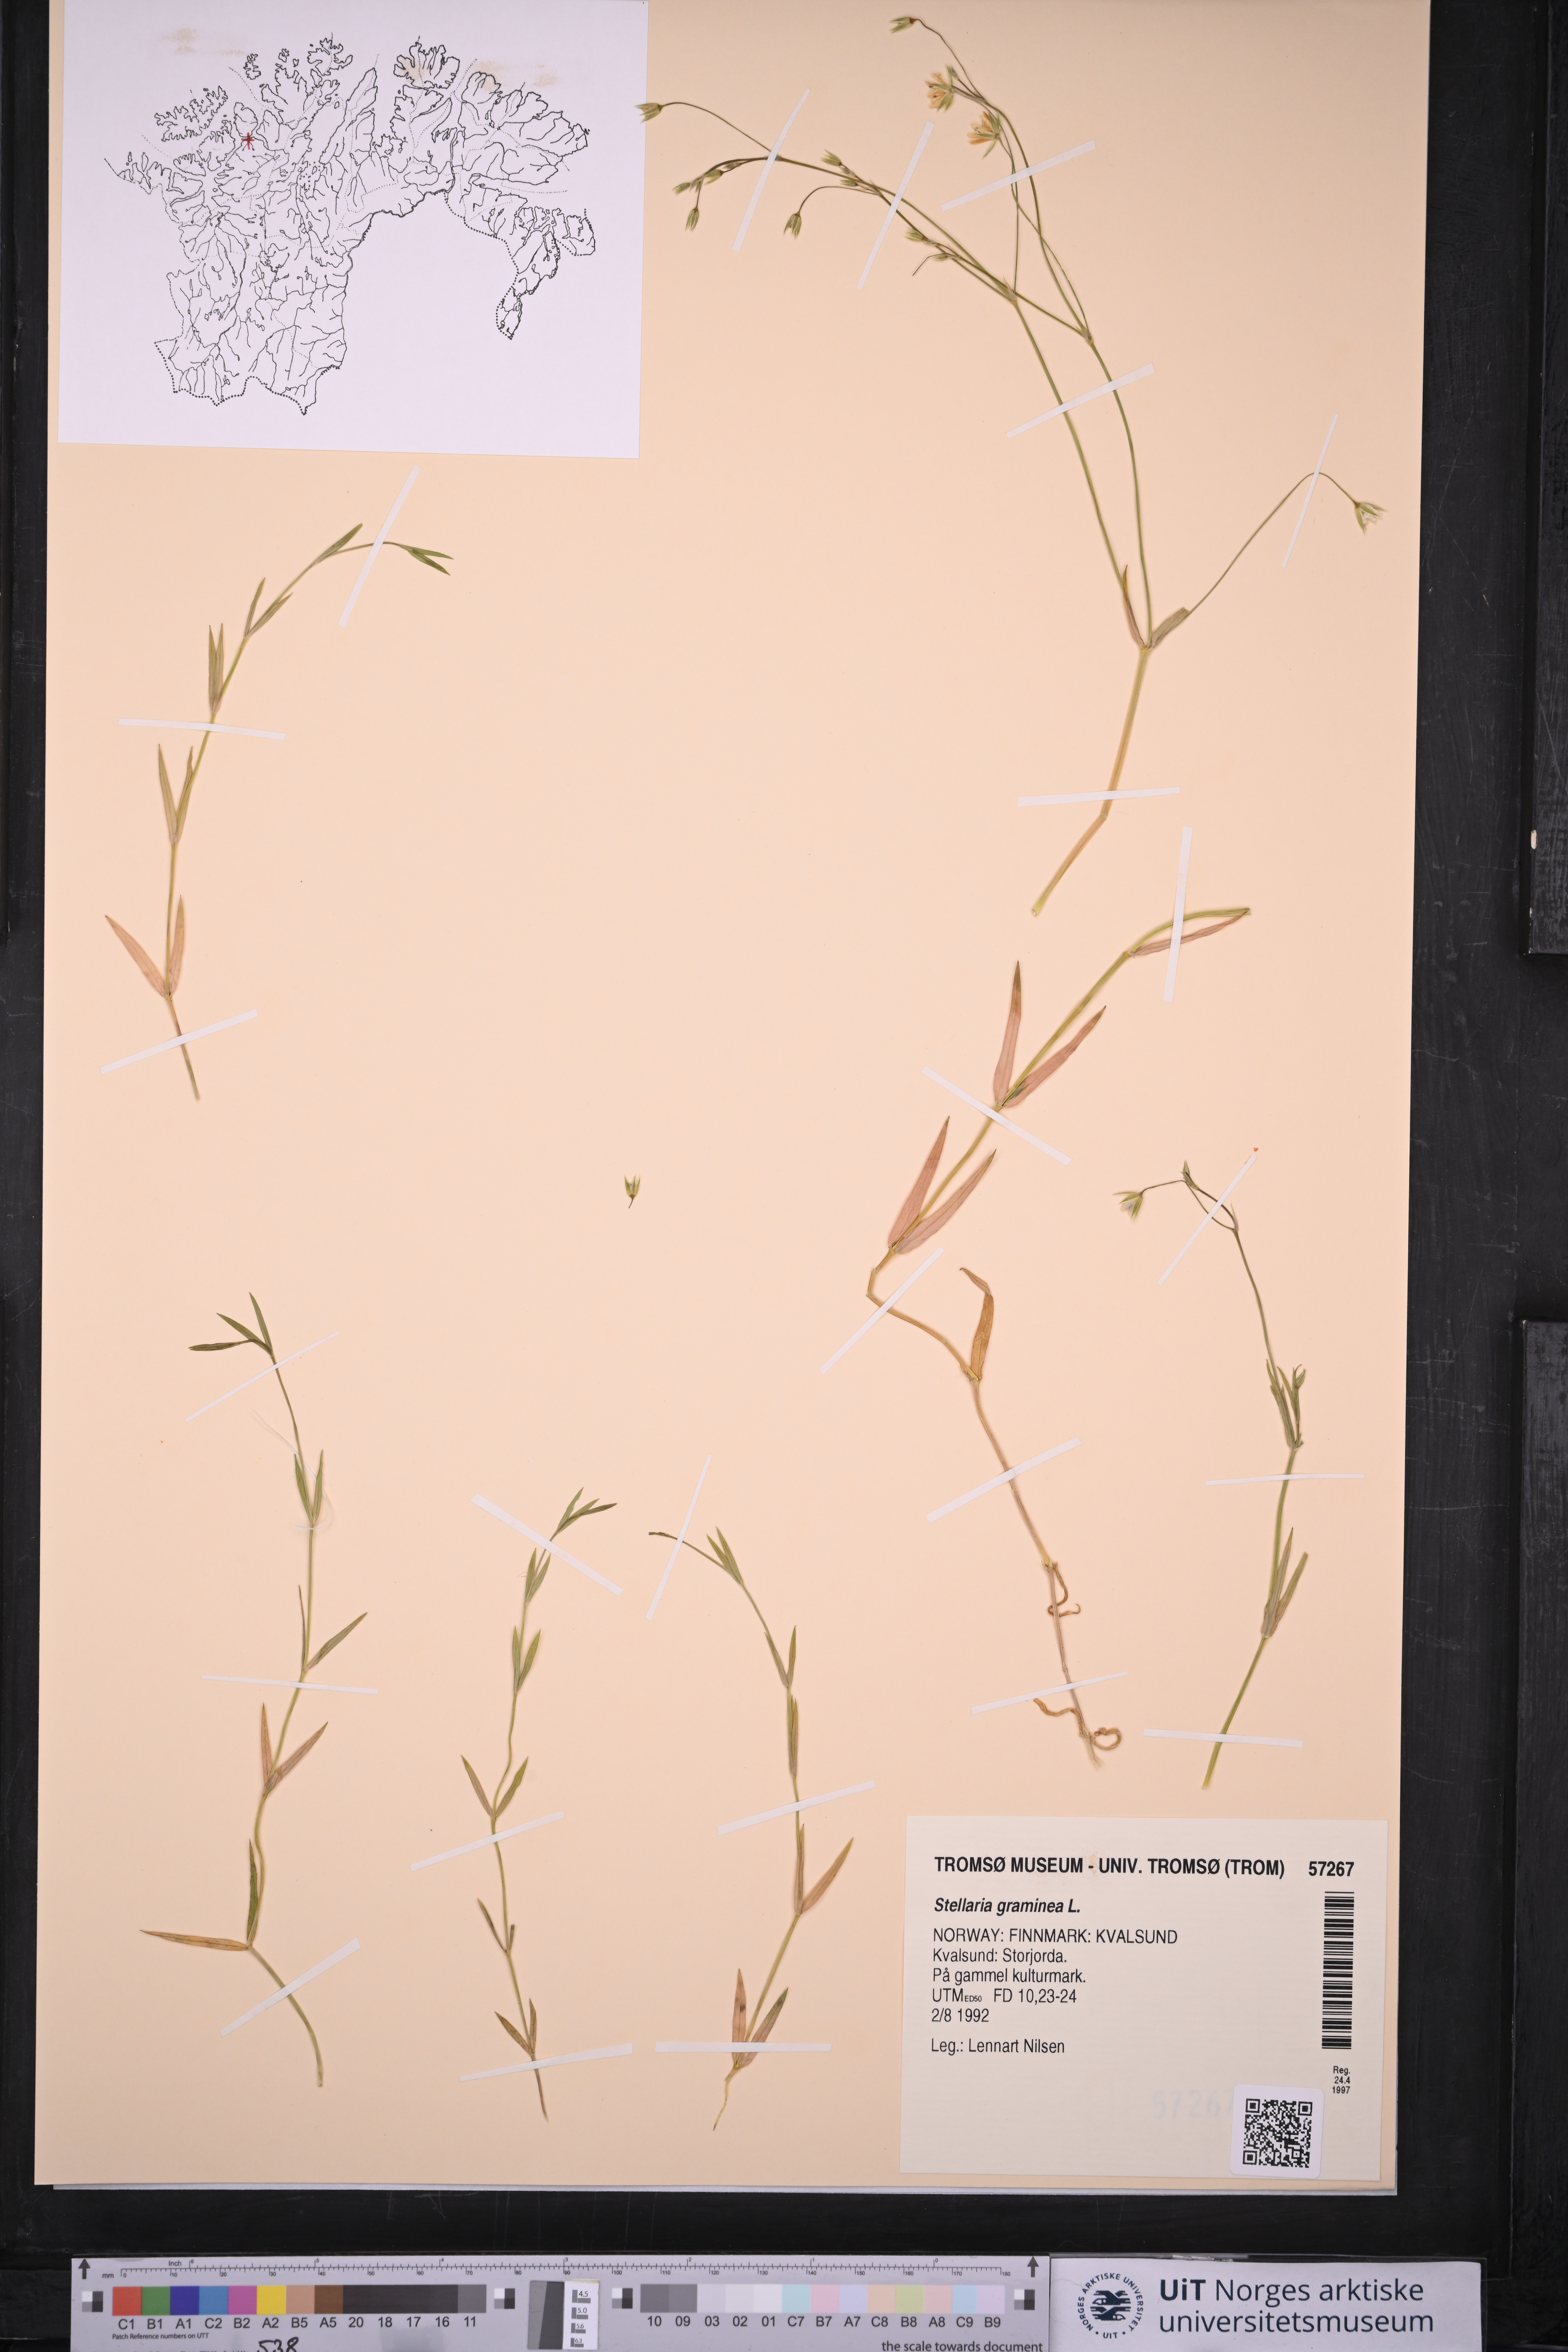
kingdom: Plantae
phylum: Tracheophyta
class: Magnoliopsida
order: Caryophyllales
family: Caryophyllaceae
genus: Stellaria
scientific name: Stellaria graminea
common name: Grass-like starwort
